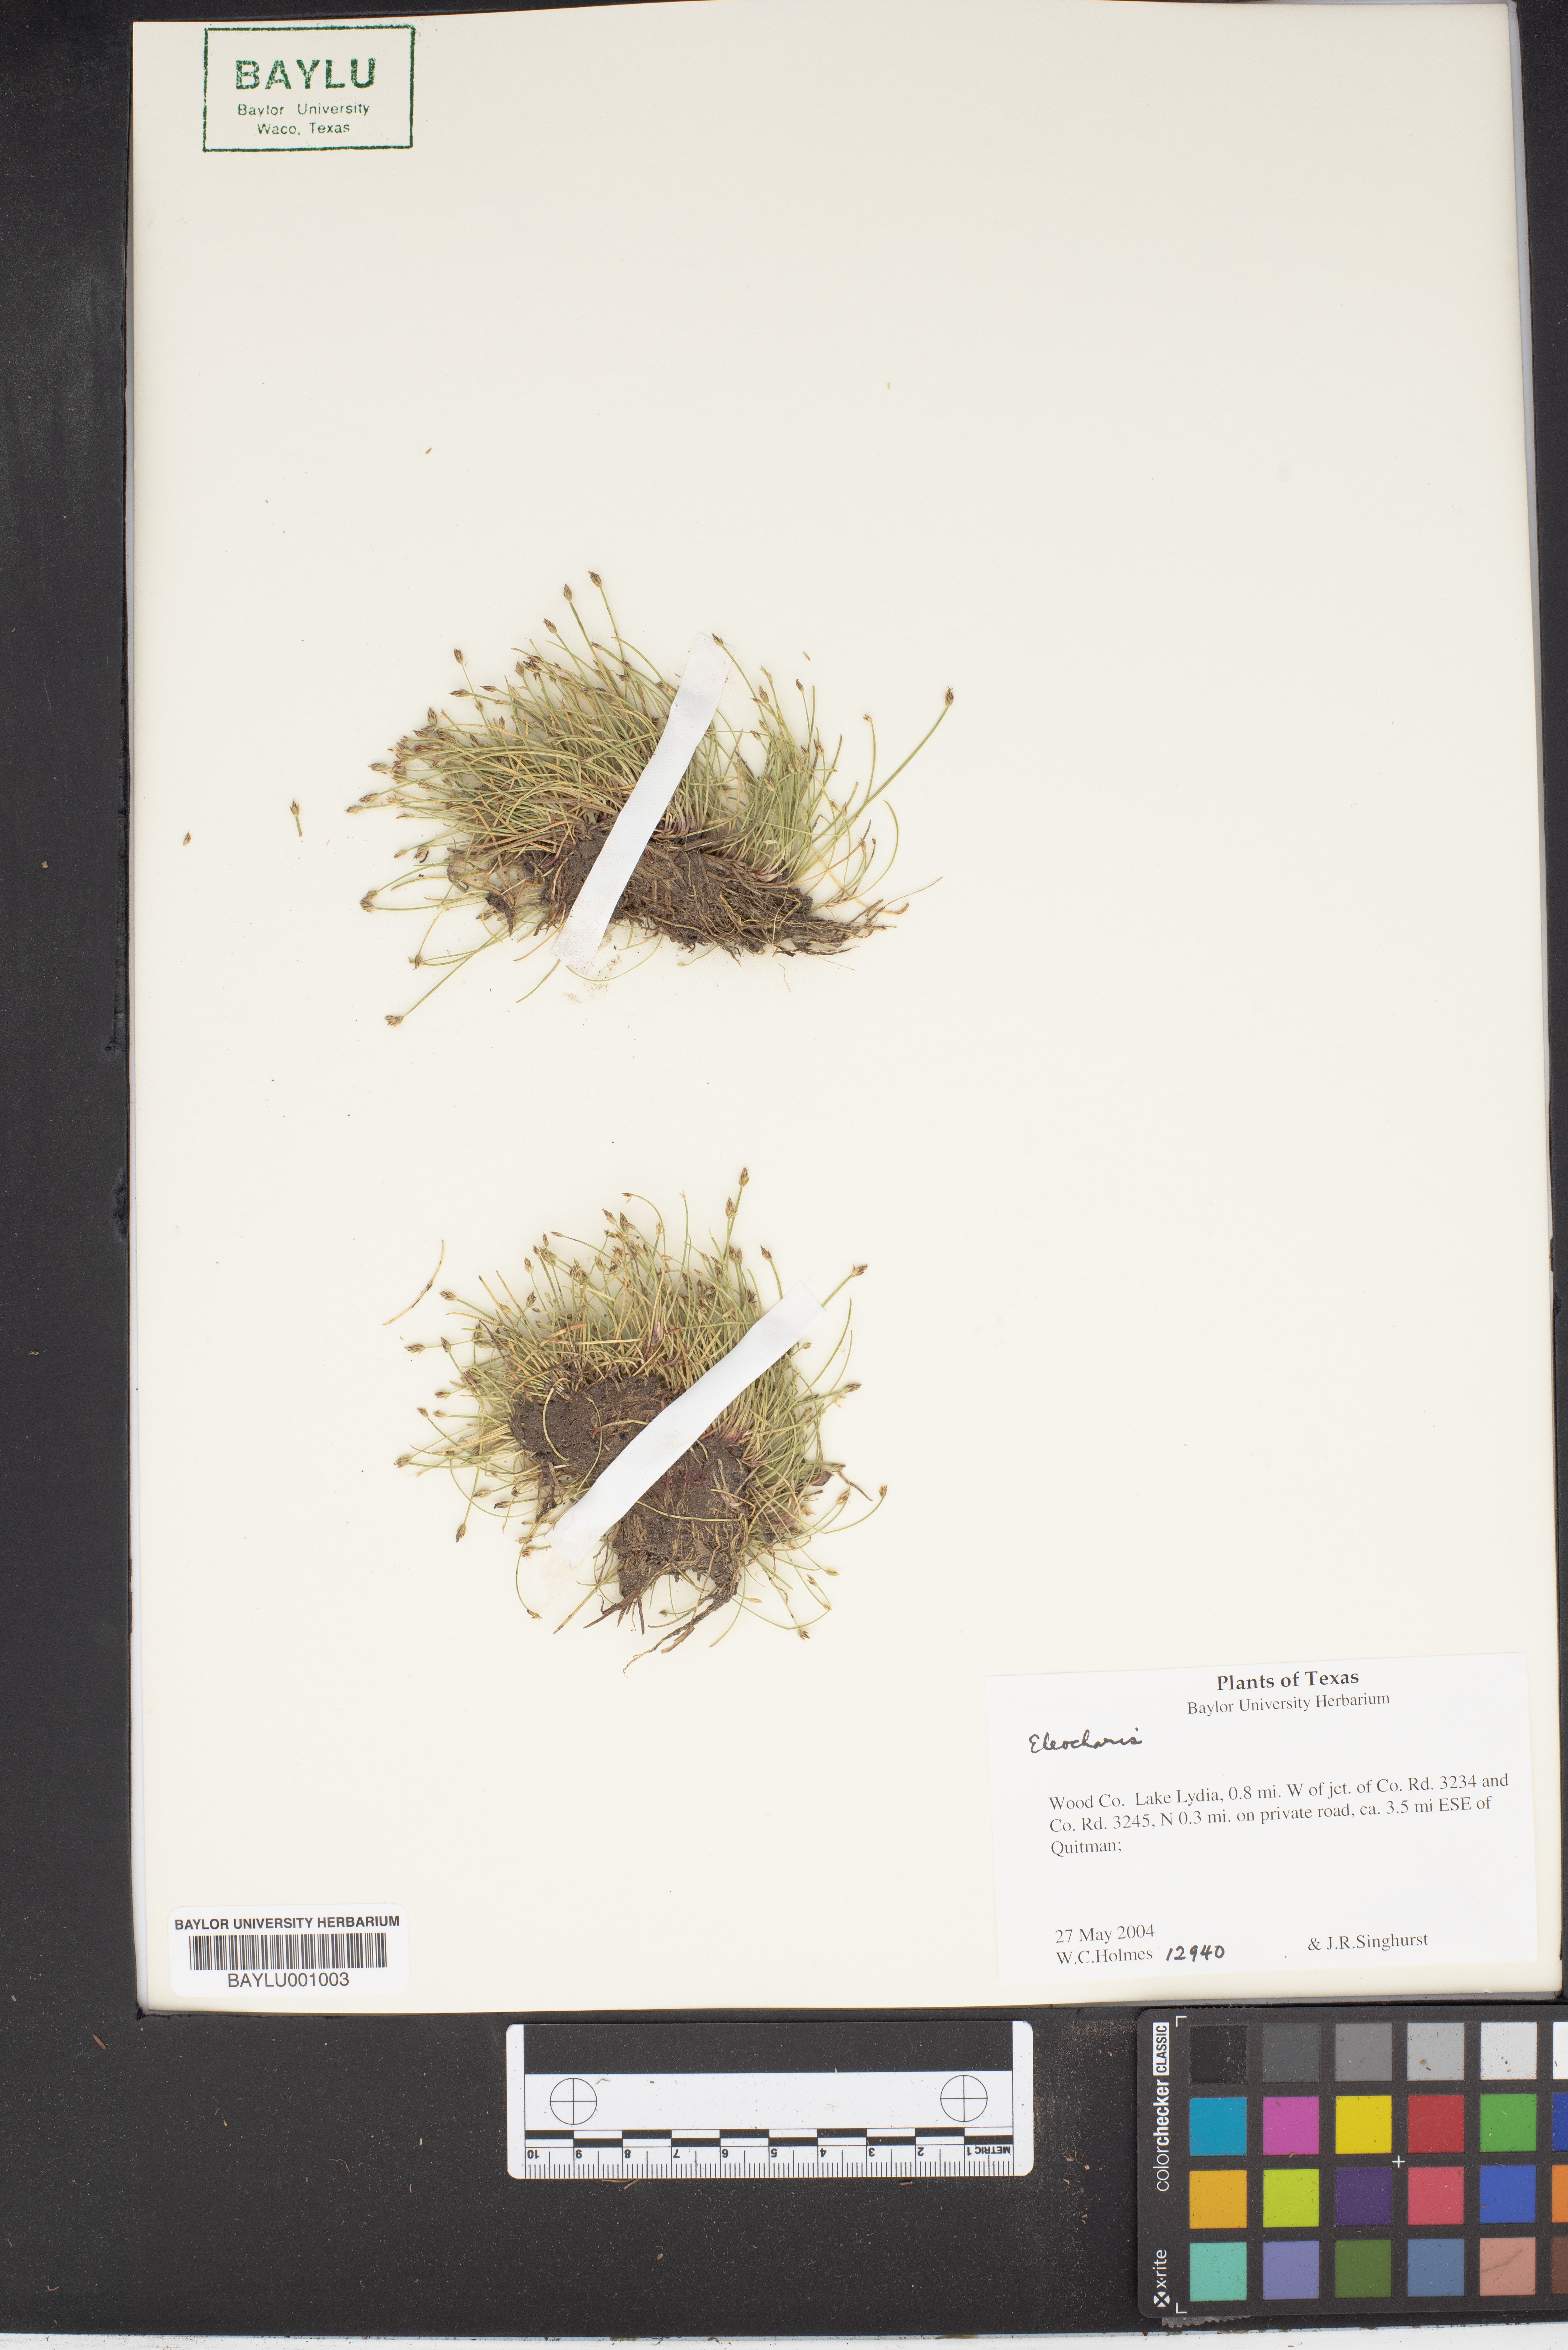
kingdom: Plantae
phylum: Tracheophyta
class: Liliopsida
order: Poales
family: Cyperaceae
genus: Eleocharis
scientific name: Eleocharis
